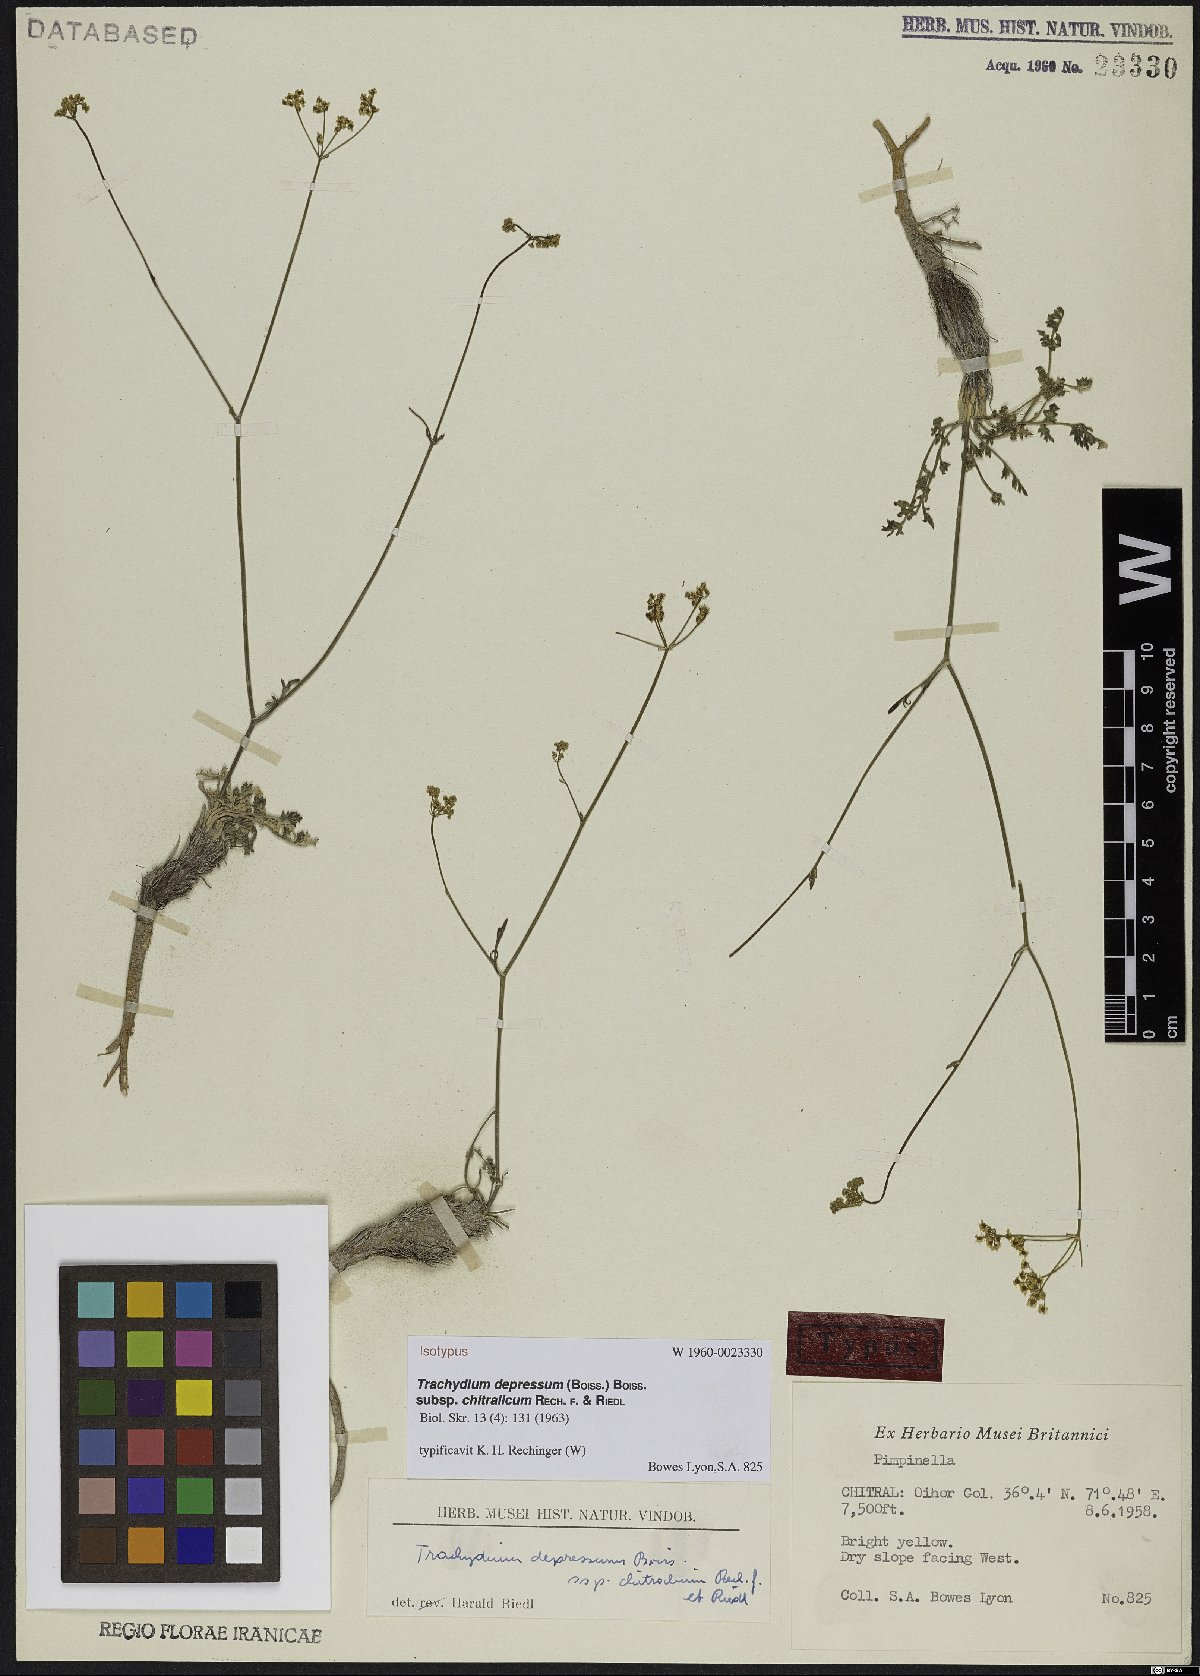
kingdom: Plantae
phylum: Tracheophyta
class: Magnoliopsida
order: Apiales
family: Apiaceae
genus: Pseudotrachydium
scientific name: Pseudotrachydium depressum
